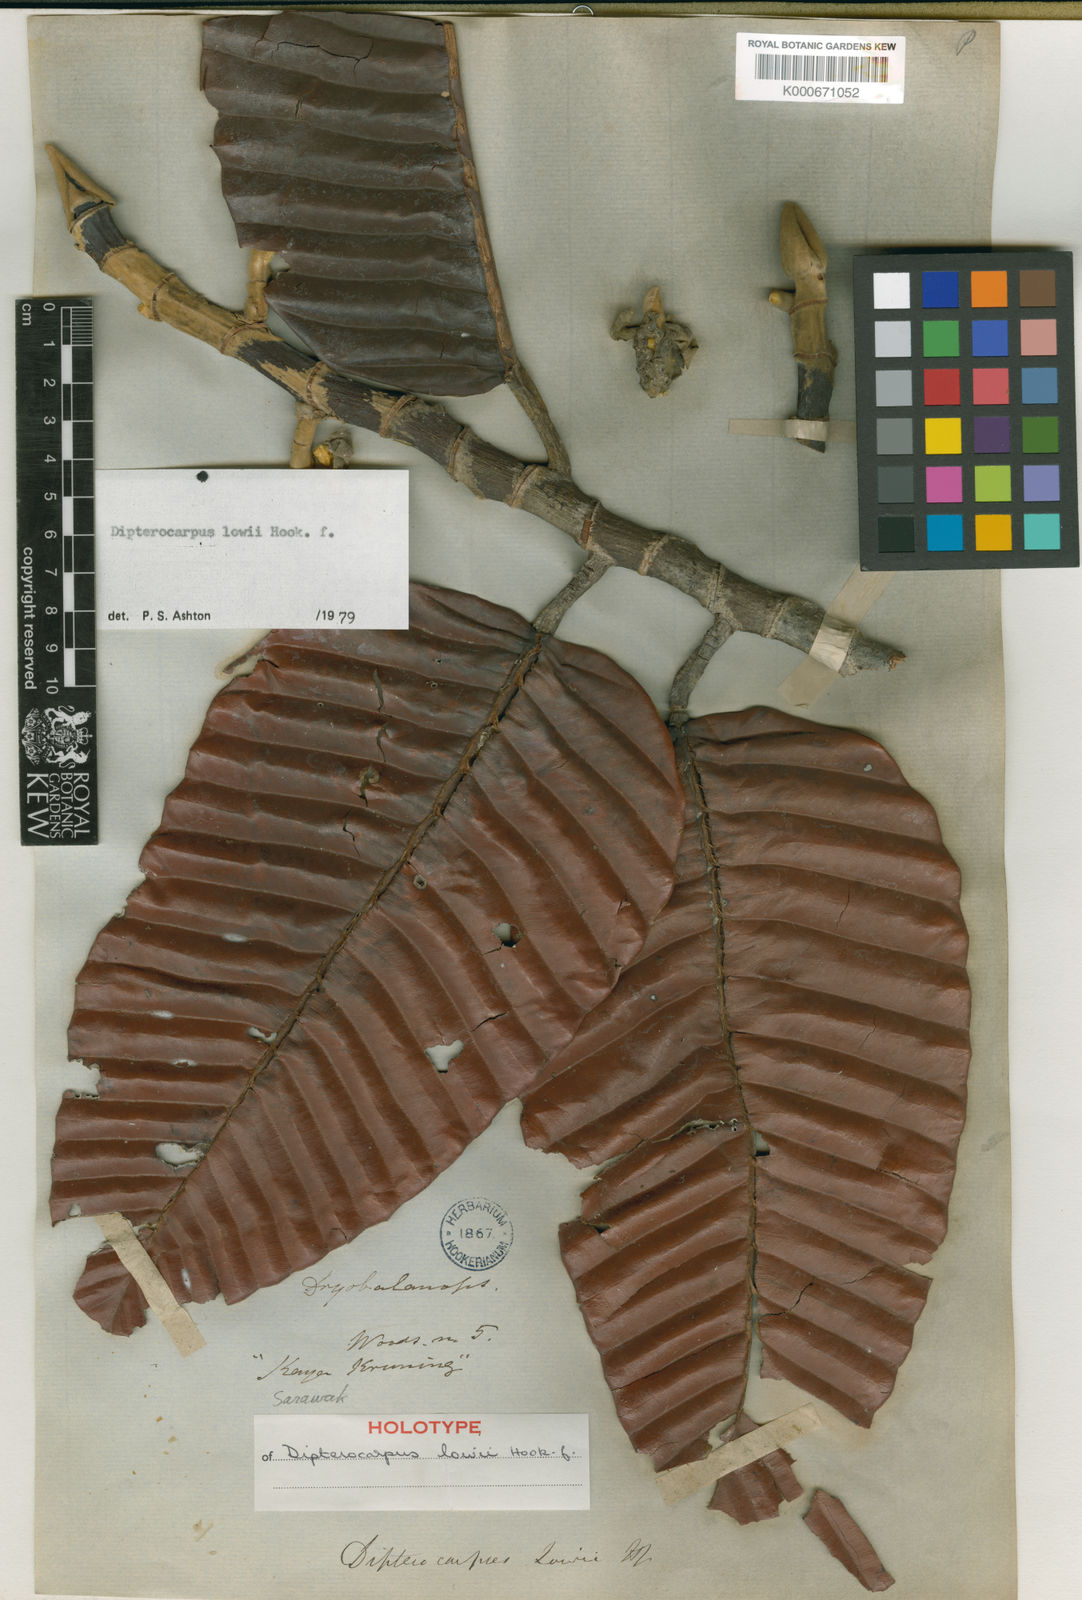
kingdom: Plantae
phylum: Tracheophyta
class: Magnoliopsida
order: Malvales
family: Dipterocarpaceae
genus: Dipterocarpus
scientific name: Dipterocarpus lowii
